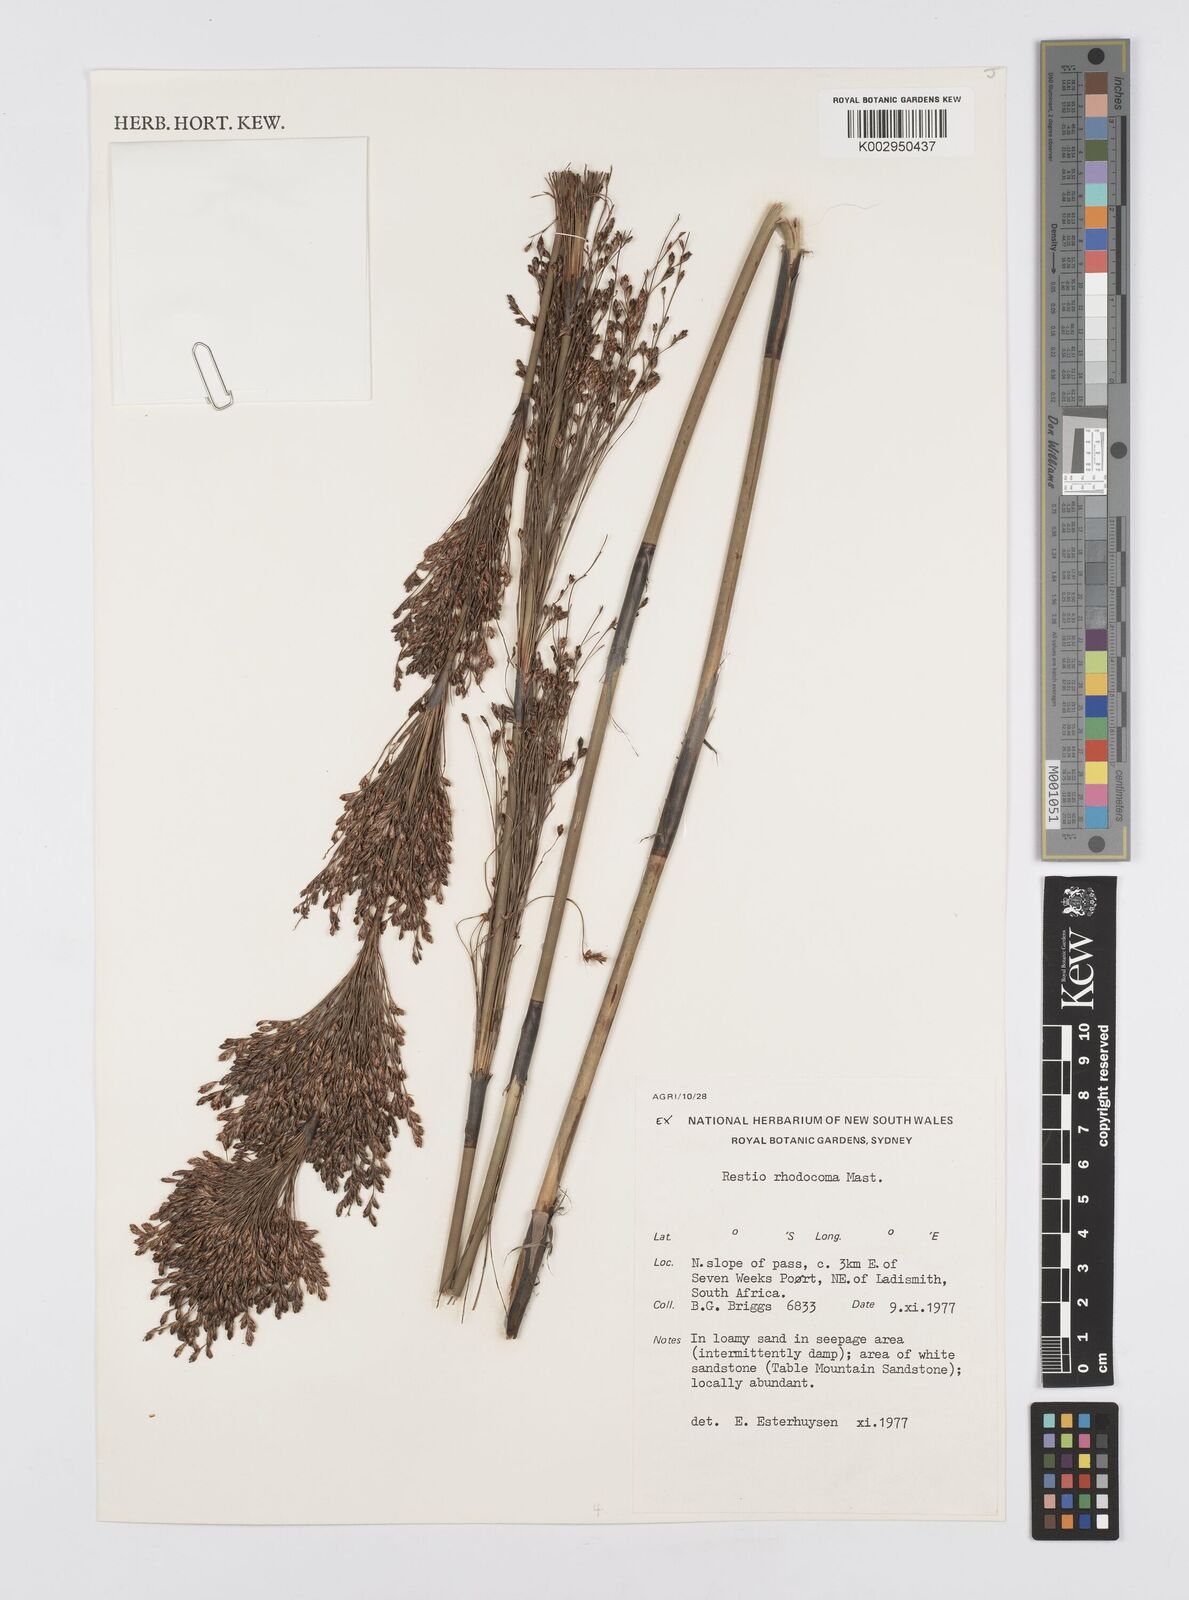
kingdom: Plantae
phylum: Tracheophyta
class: Liliopsida
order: Poales
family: Restionaceae
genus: Rhodocoma
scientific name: Rhodocoma capensis
